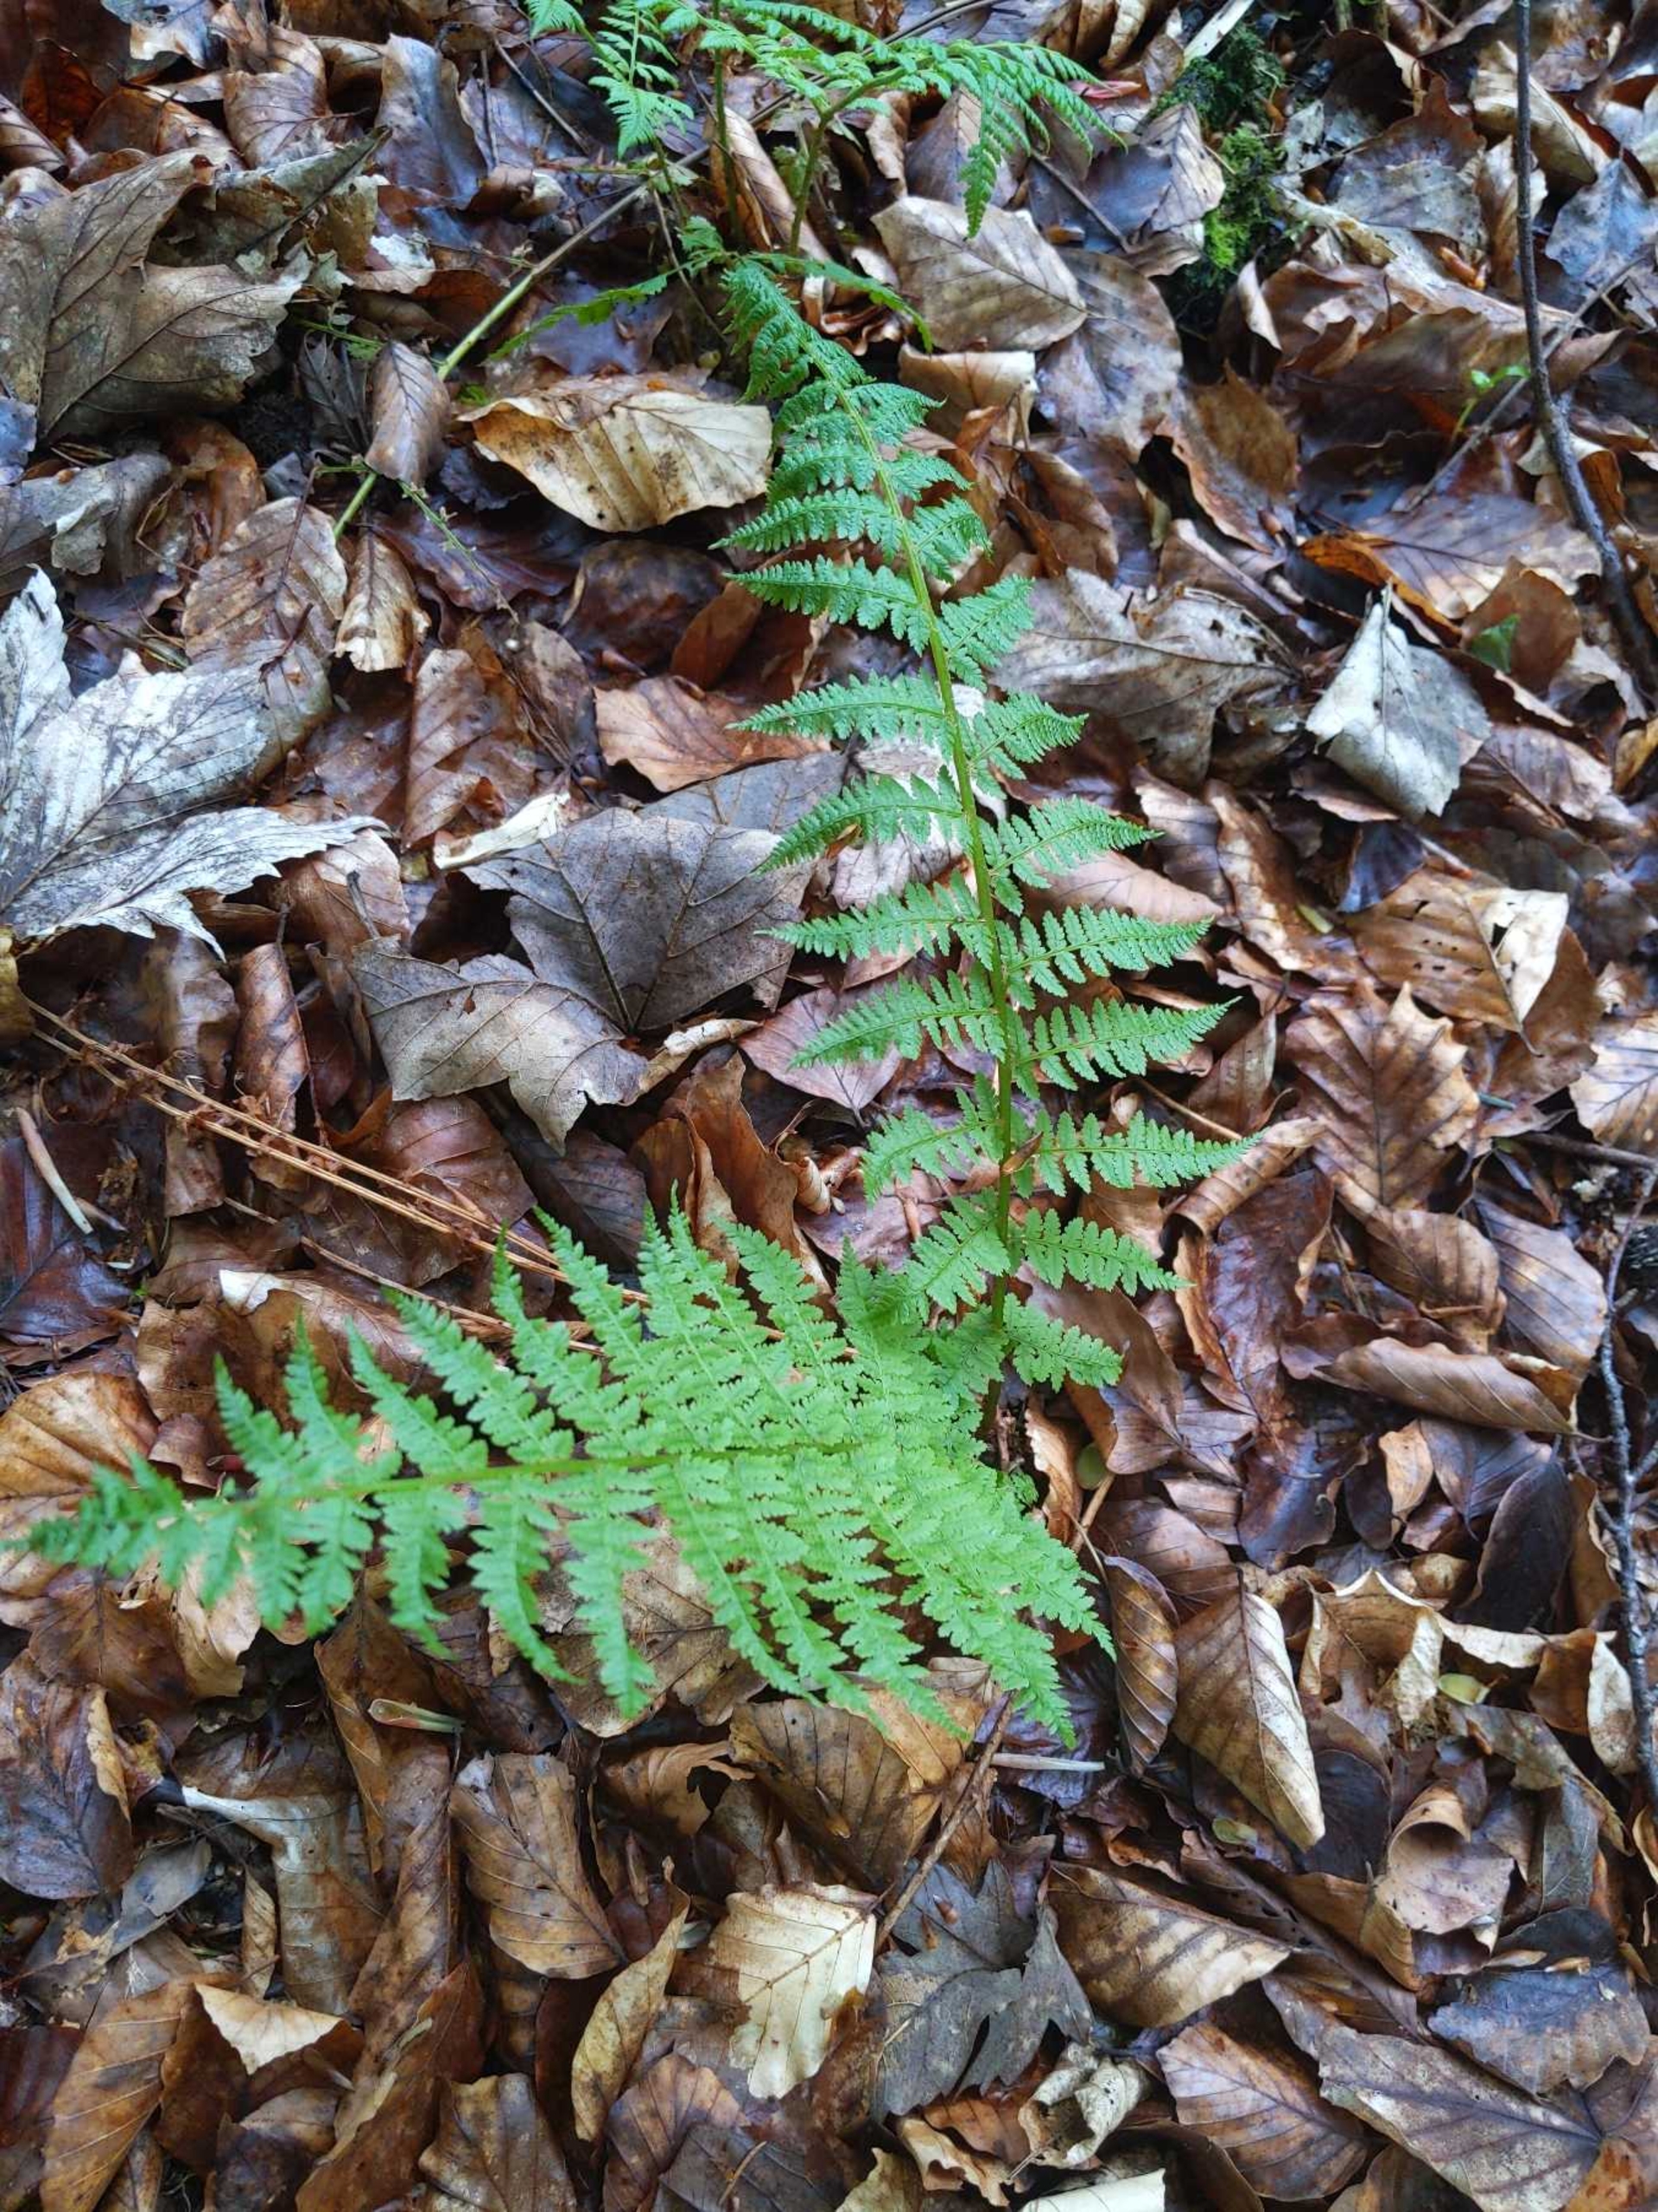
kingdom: Plantae
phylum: Tracheophyta
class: Polypodiopsida
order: Polypodiales
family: Athyriaceae
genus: Athyrium
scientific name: Athyrium filix-femina
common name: Fjerbregne
